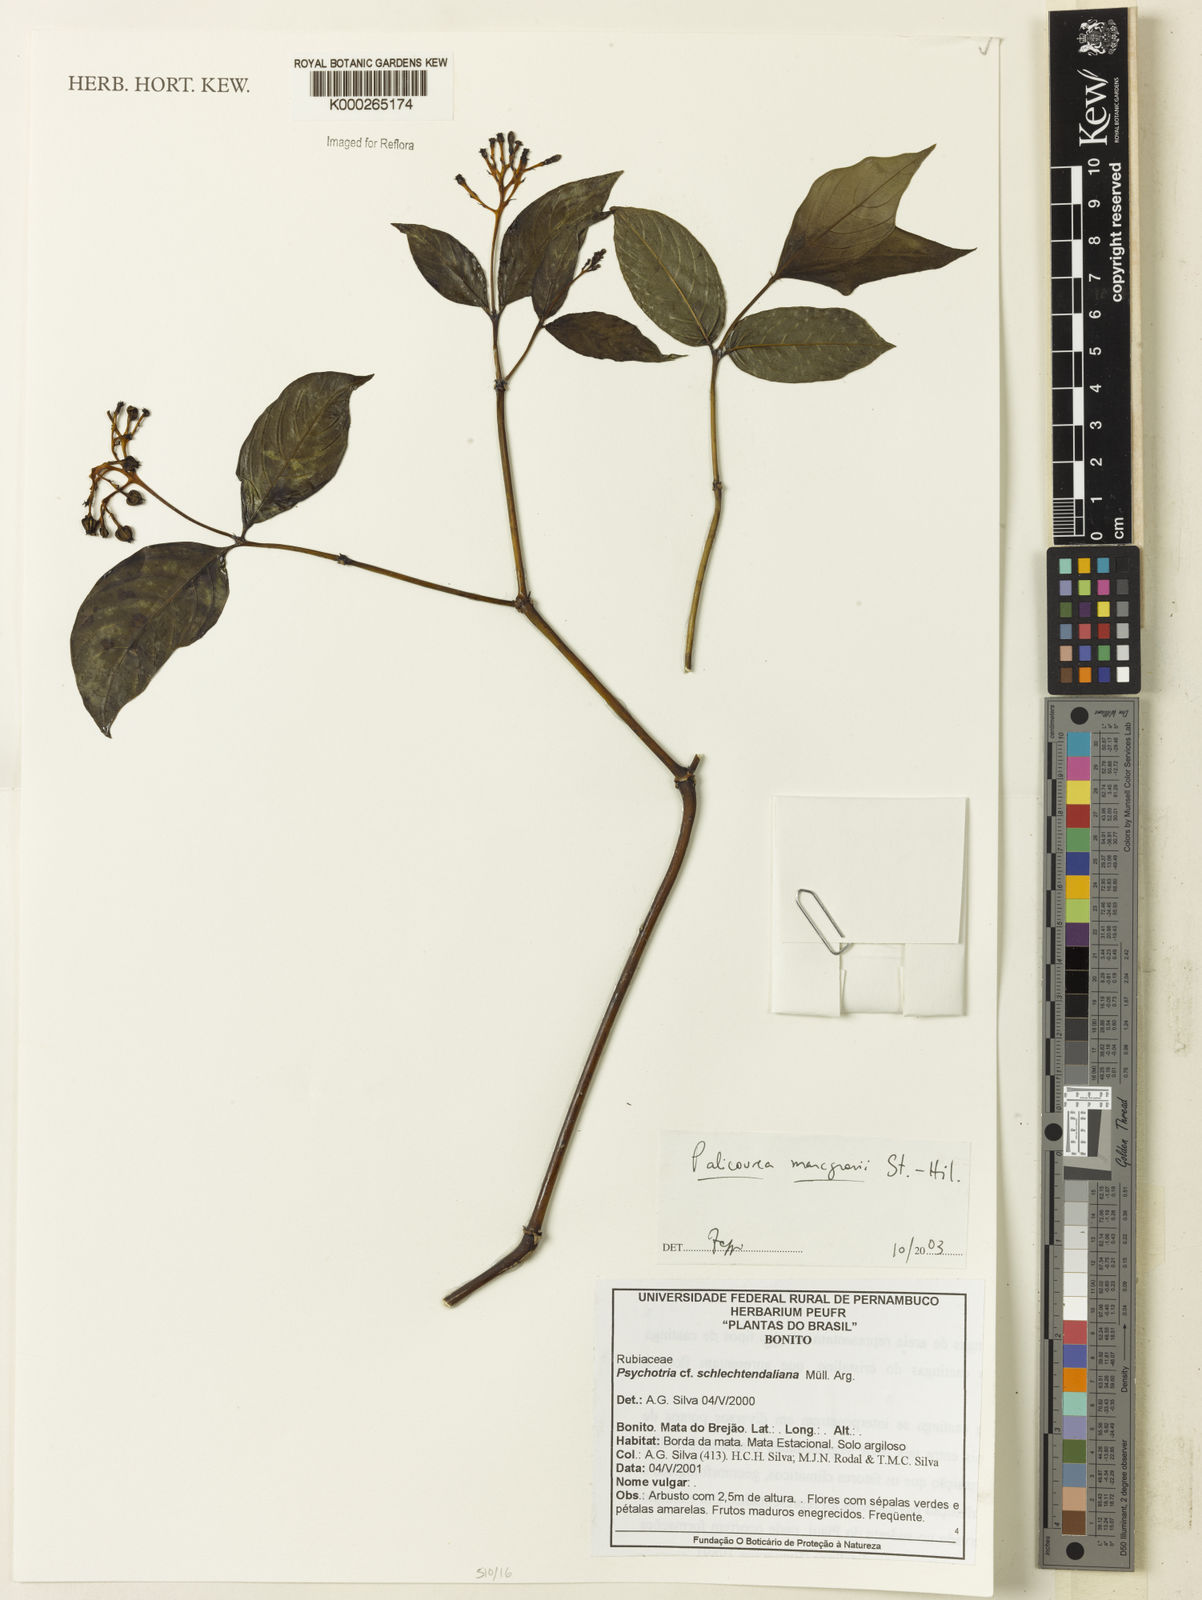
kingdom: Plantae
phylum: Tracheophyta
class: Magnoliopsida
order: Gentianales
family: Rubiaceae
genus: Palicourea
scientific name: Palicourea marcgravii
